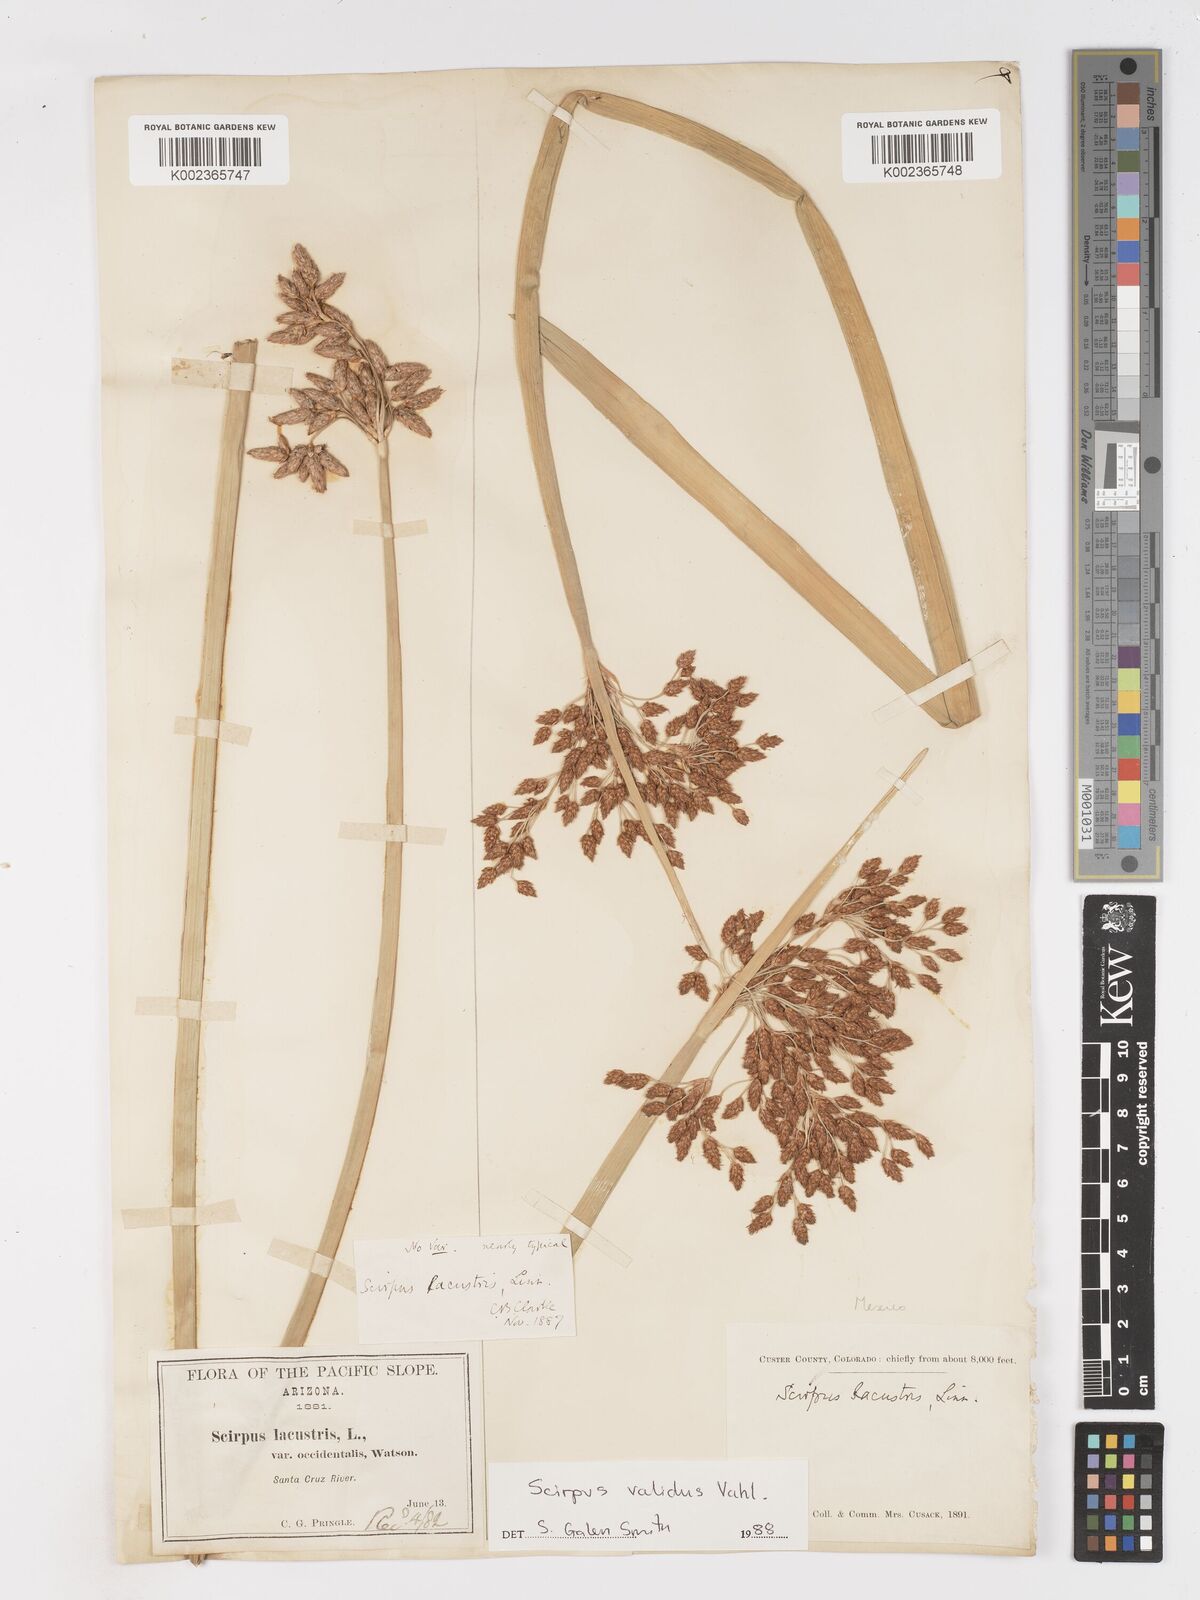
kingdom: Plantae
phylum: Tracheophyta
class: Liliopsida
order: Poales
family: Cyperaceae
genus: Schoenoplectus
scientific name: Schoenoplectus
